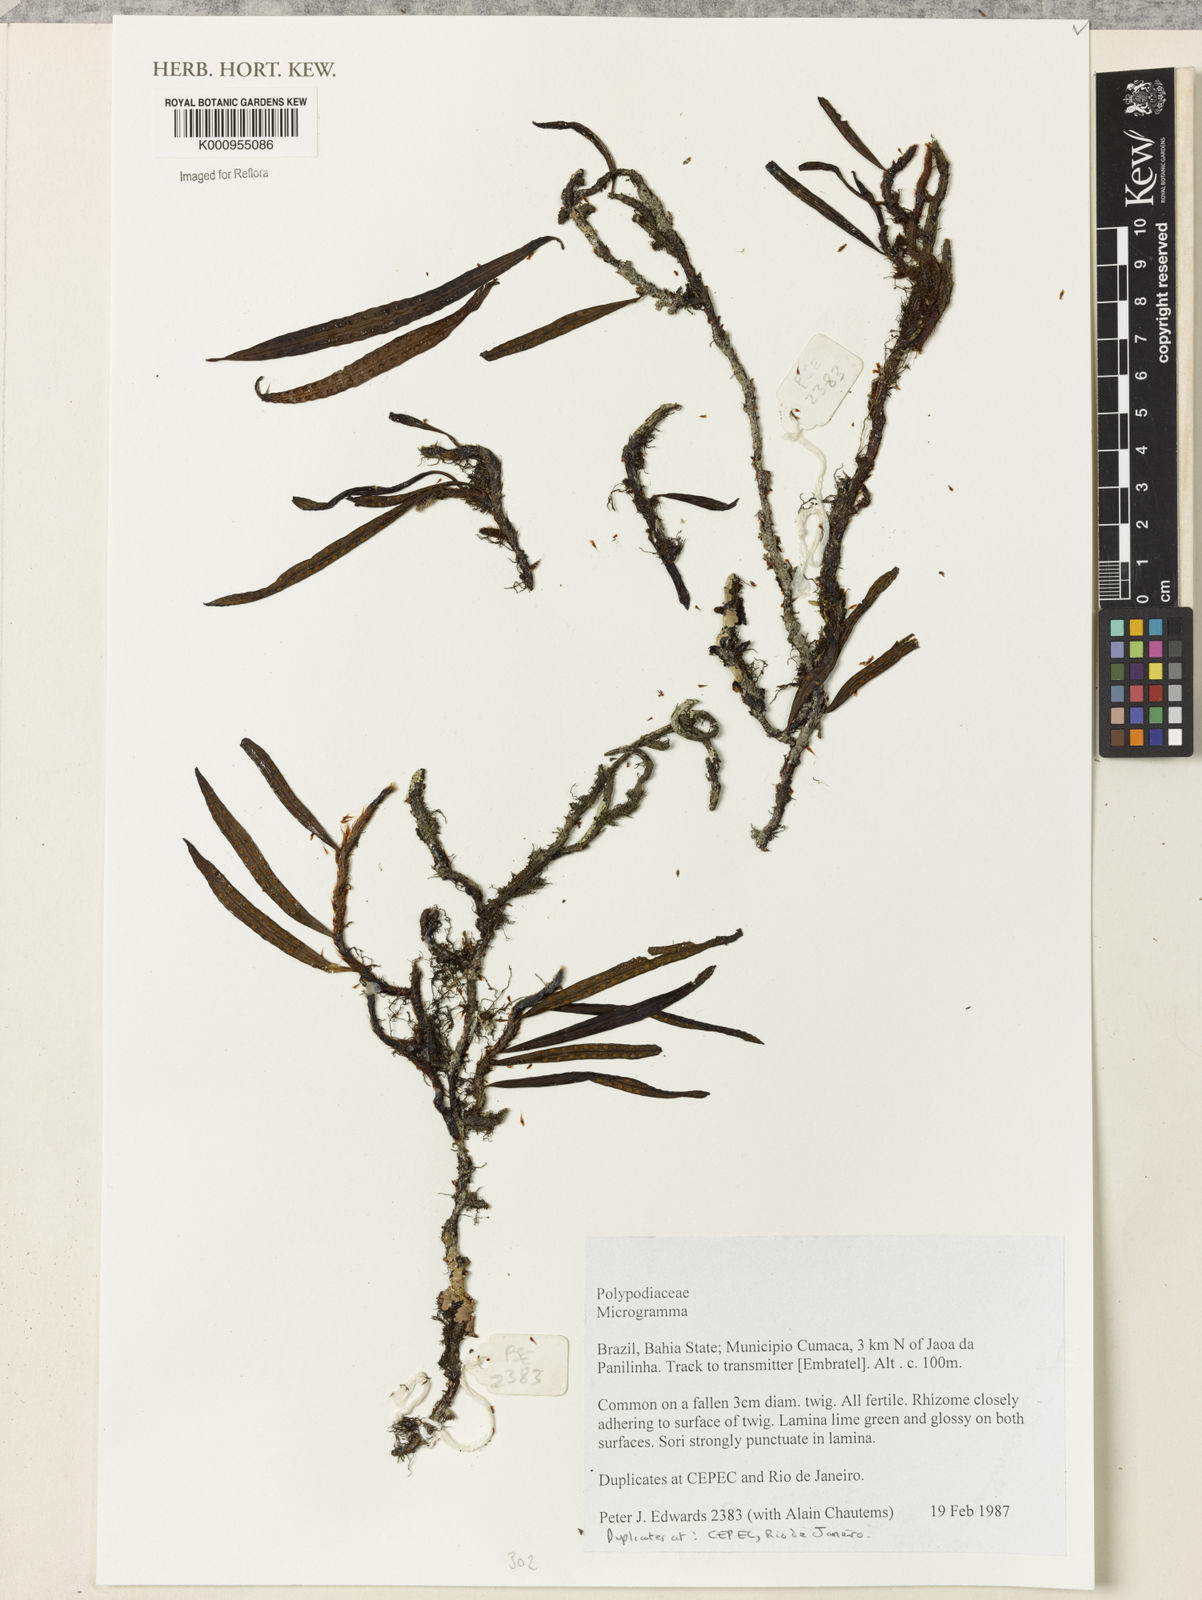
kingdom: Plantae
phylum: Tracheophyta
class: Polypodiopsida
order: Polypodiales
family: Polypodiaceae
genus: Microgramma
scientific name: Microgramma
